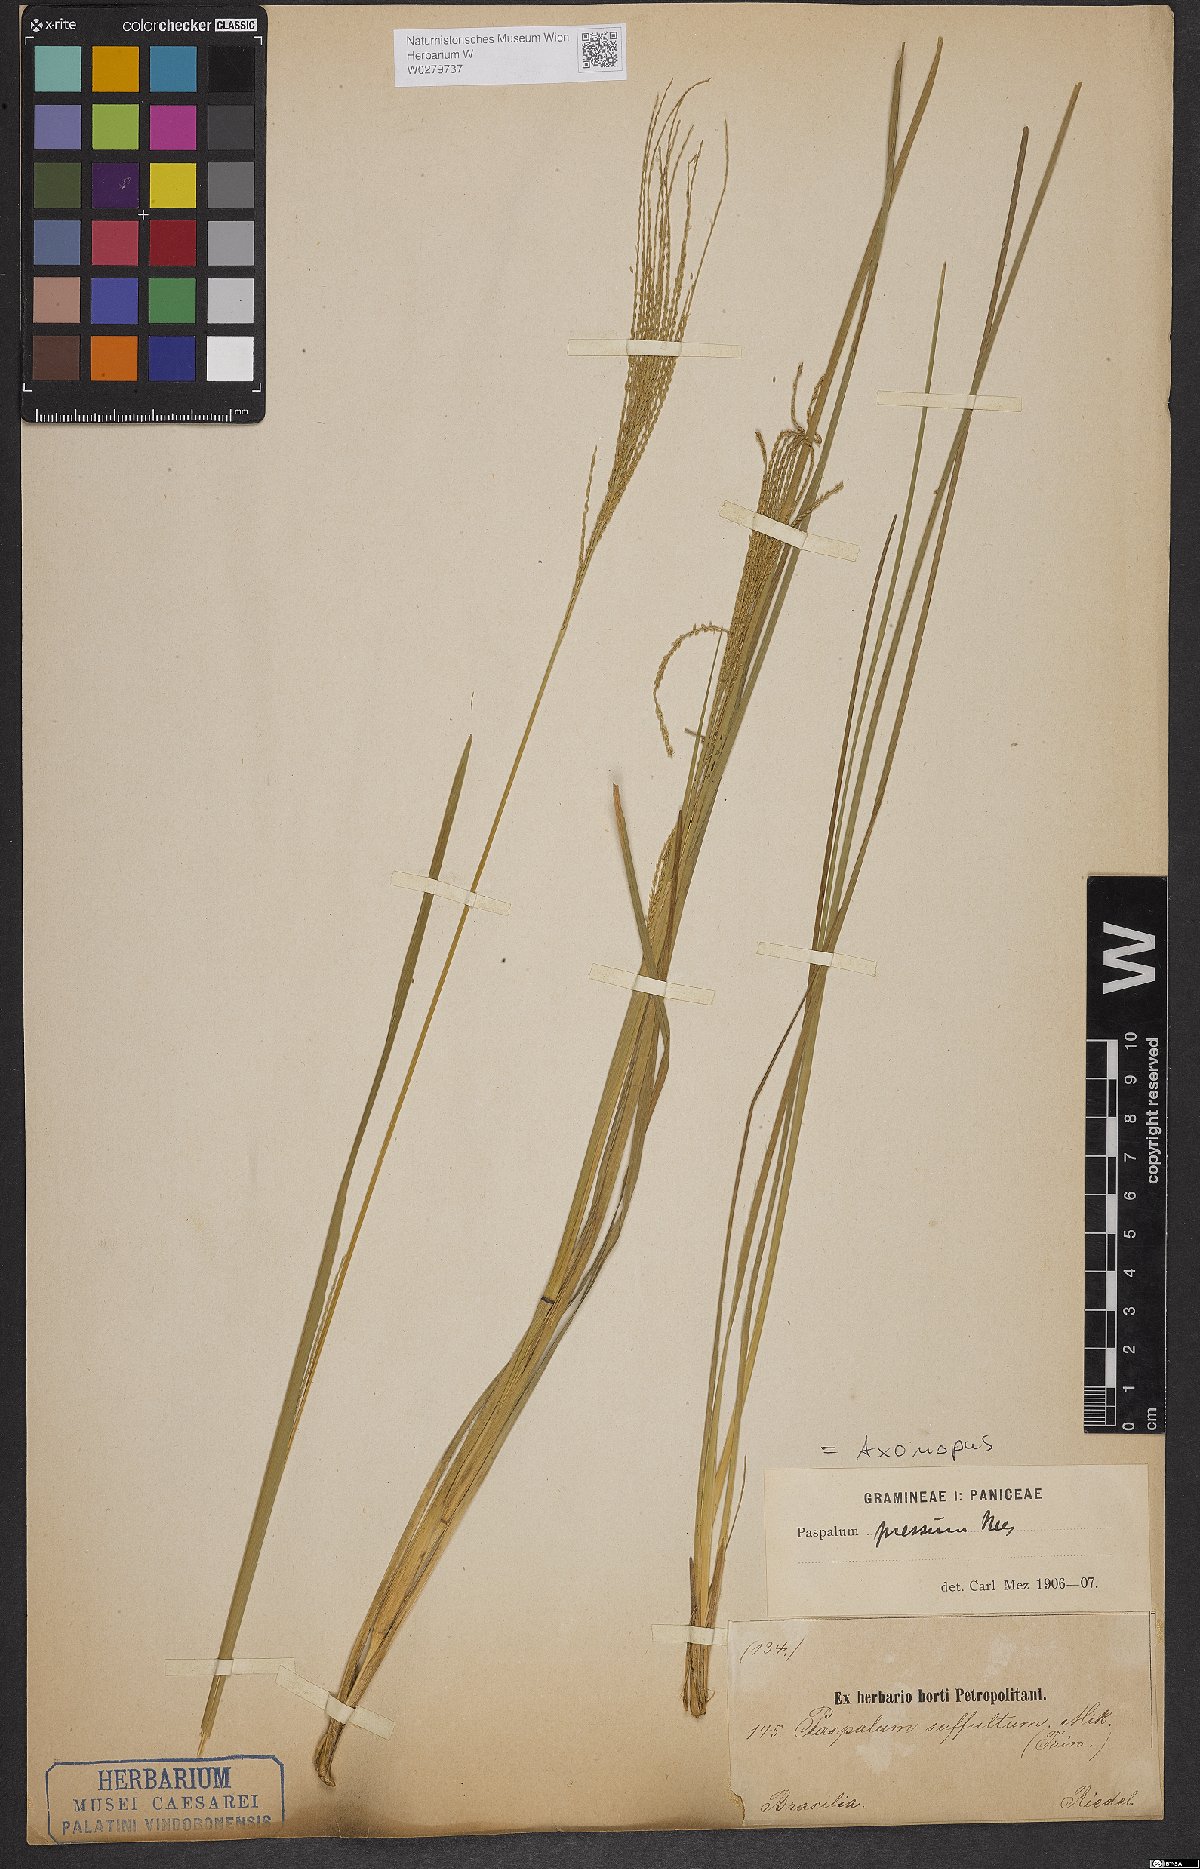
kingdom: Plantae
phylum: Tracheophyta
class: Liliopsida
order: Poales
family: Poaceae
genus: Axonopus
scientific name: Axonopus pressus
